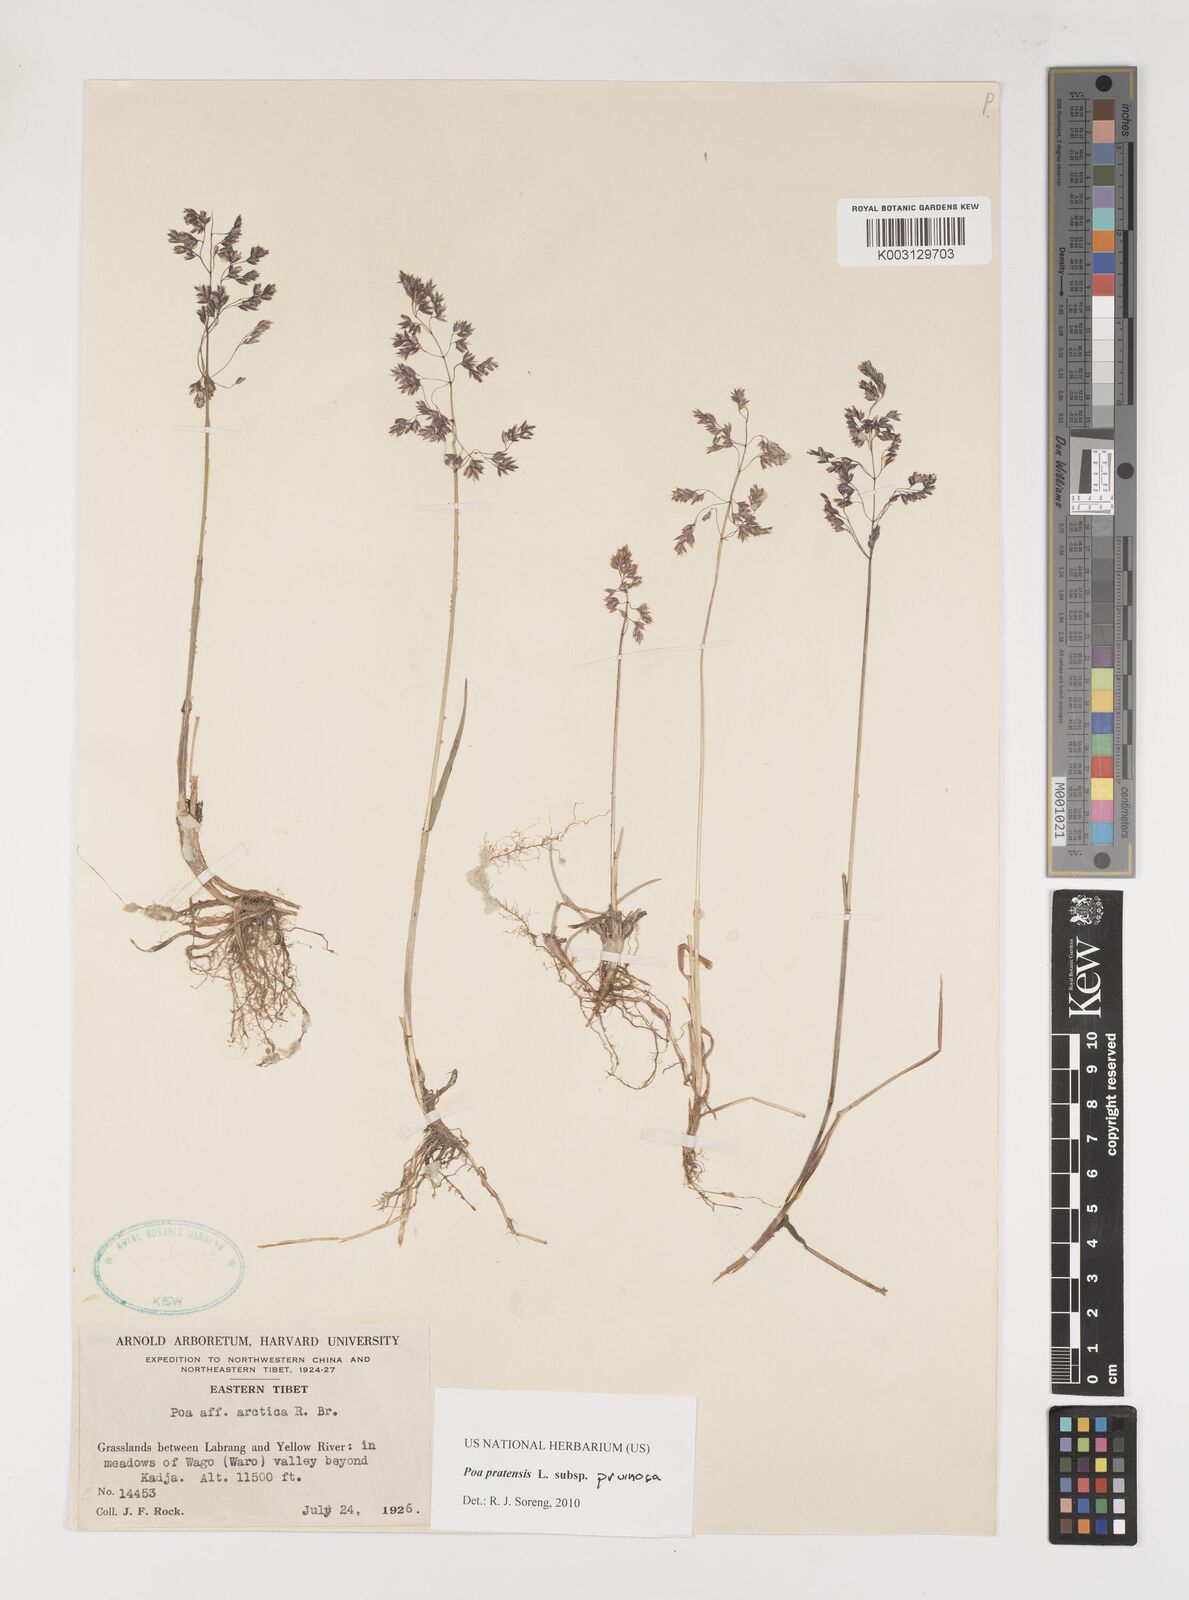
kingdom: Plantae
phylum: Tracheophyta
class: Liliopsida
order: Poales
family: Poaceae
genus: Poa
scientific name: Poa tianschanica
